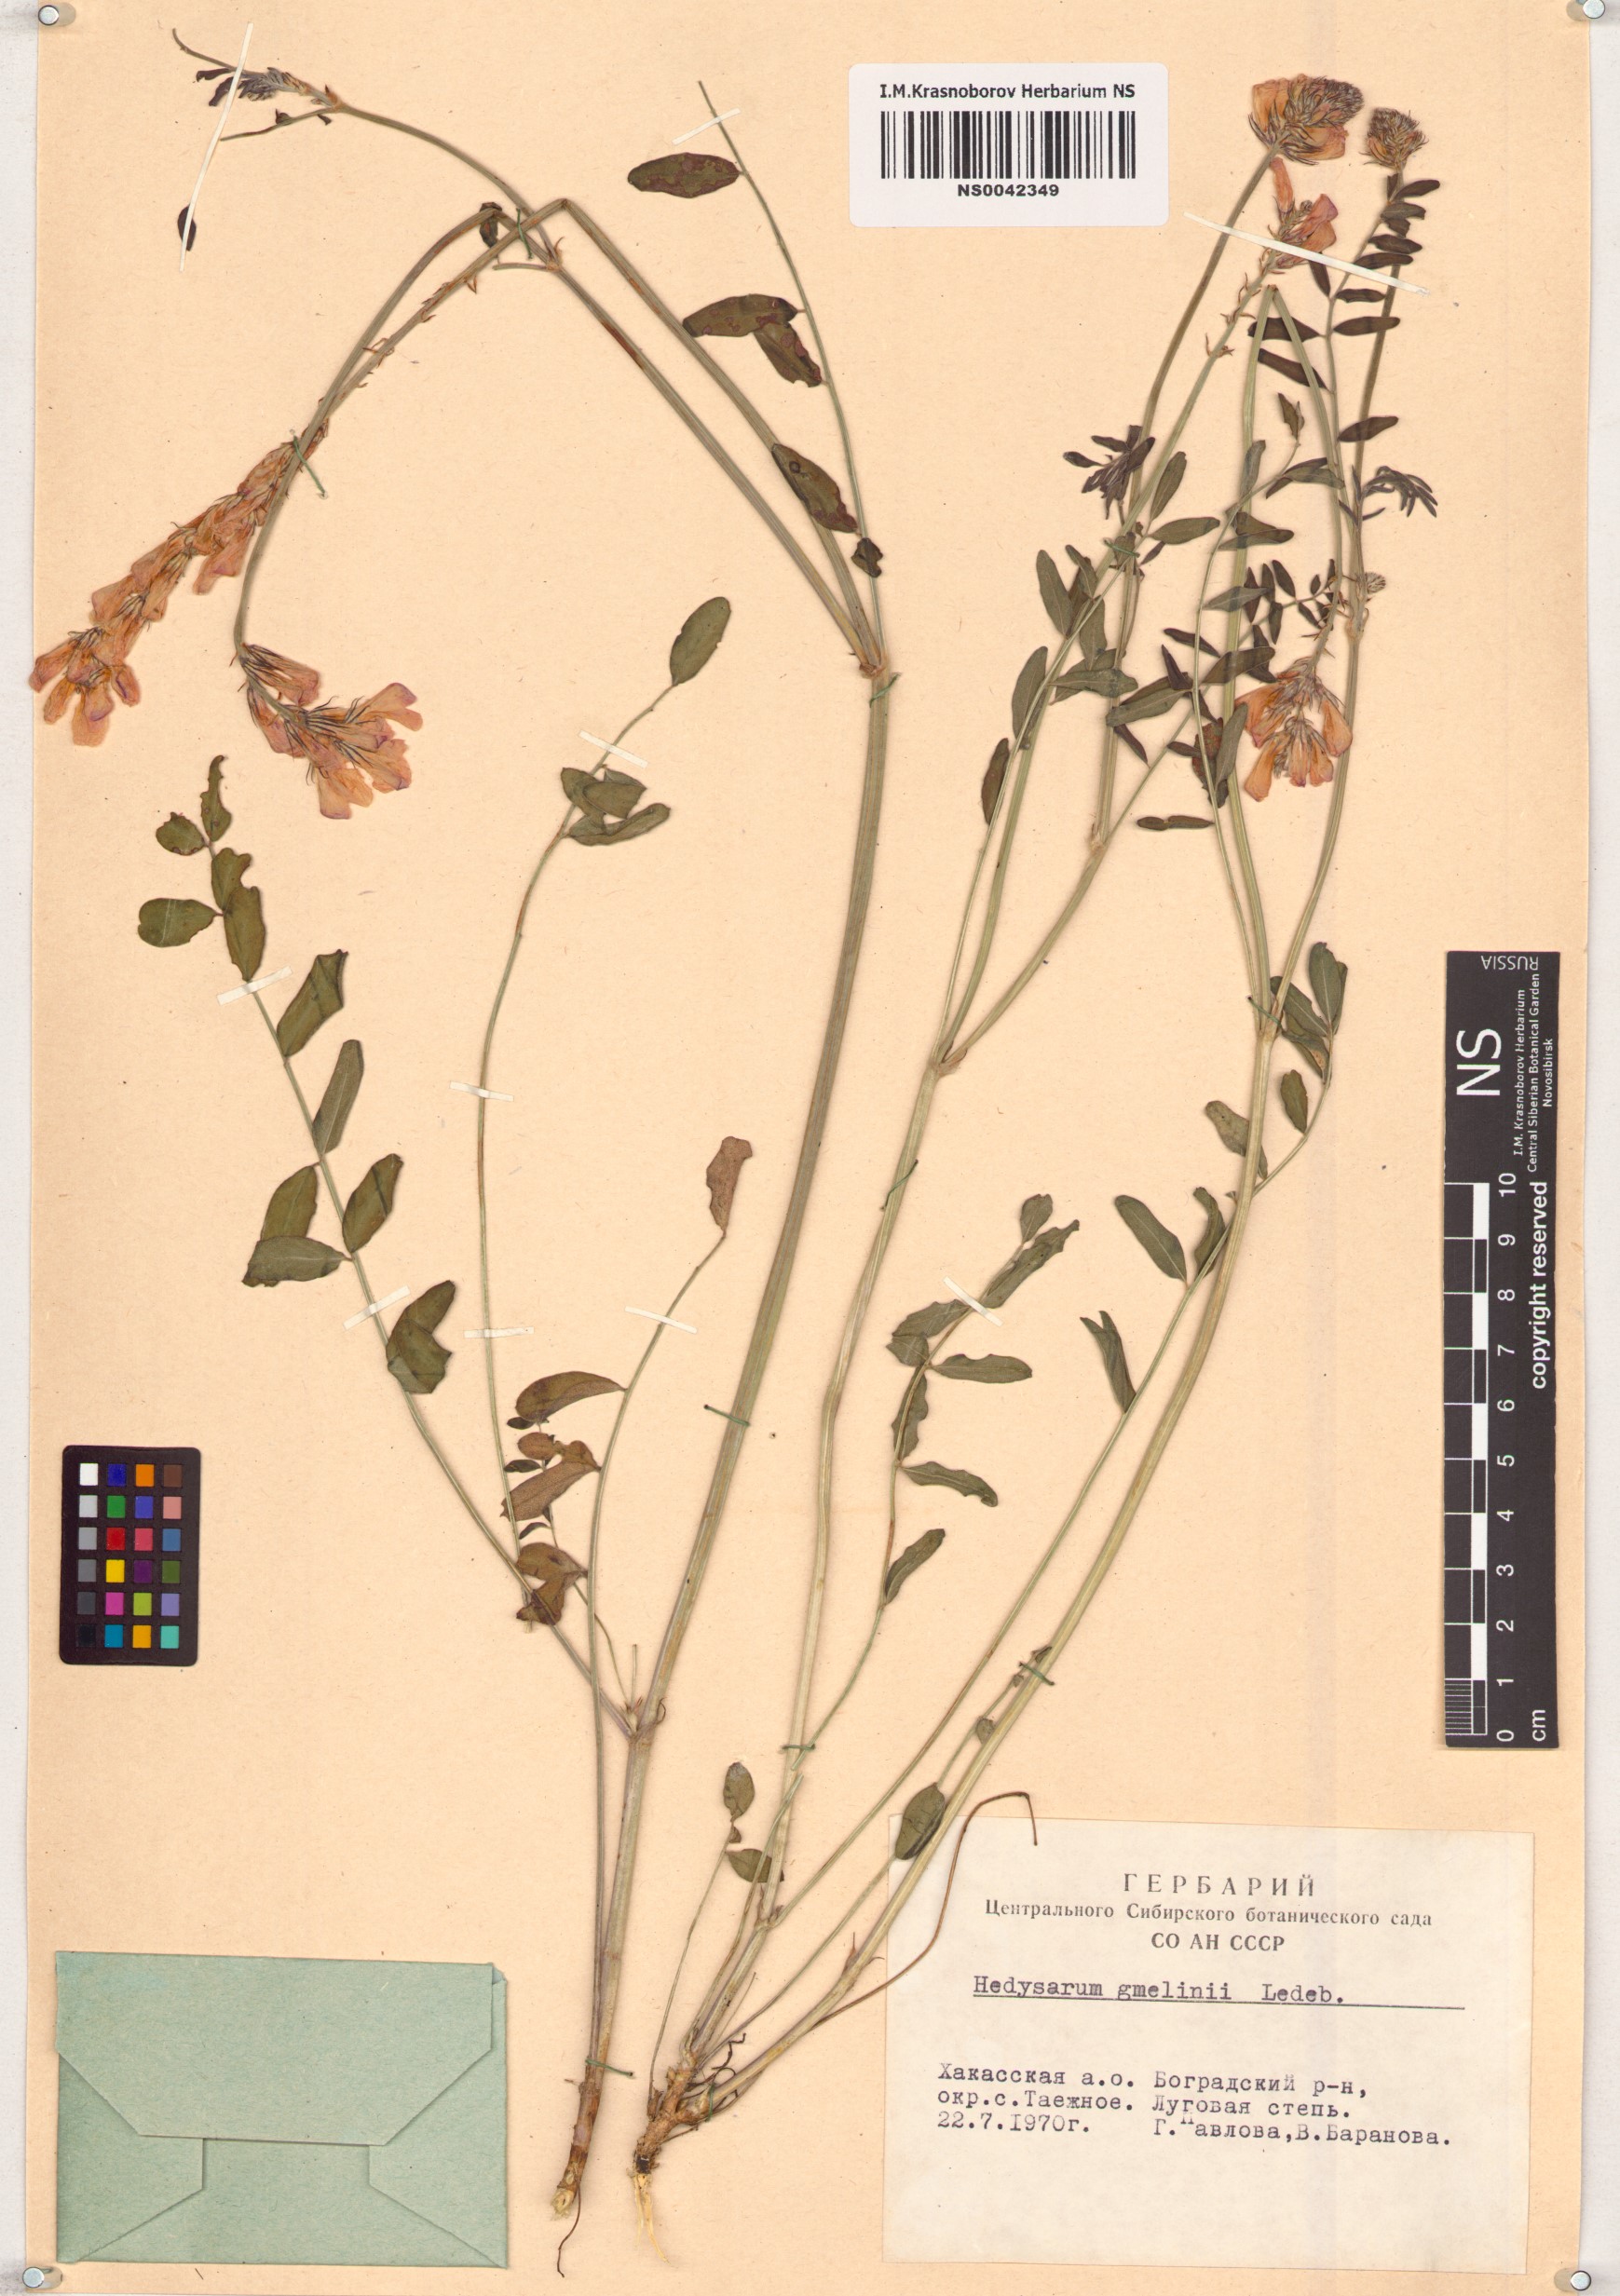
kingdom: Plantae
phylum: Tracheophyta
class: Magnoliopsida
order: Fabales
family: Fabaceae
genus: Hedysarum
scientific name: Hedysarum gmelinii
